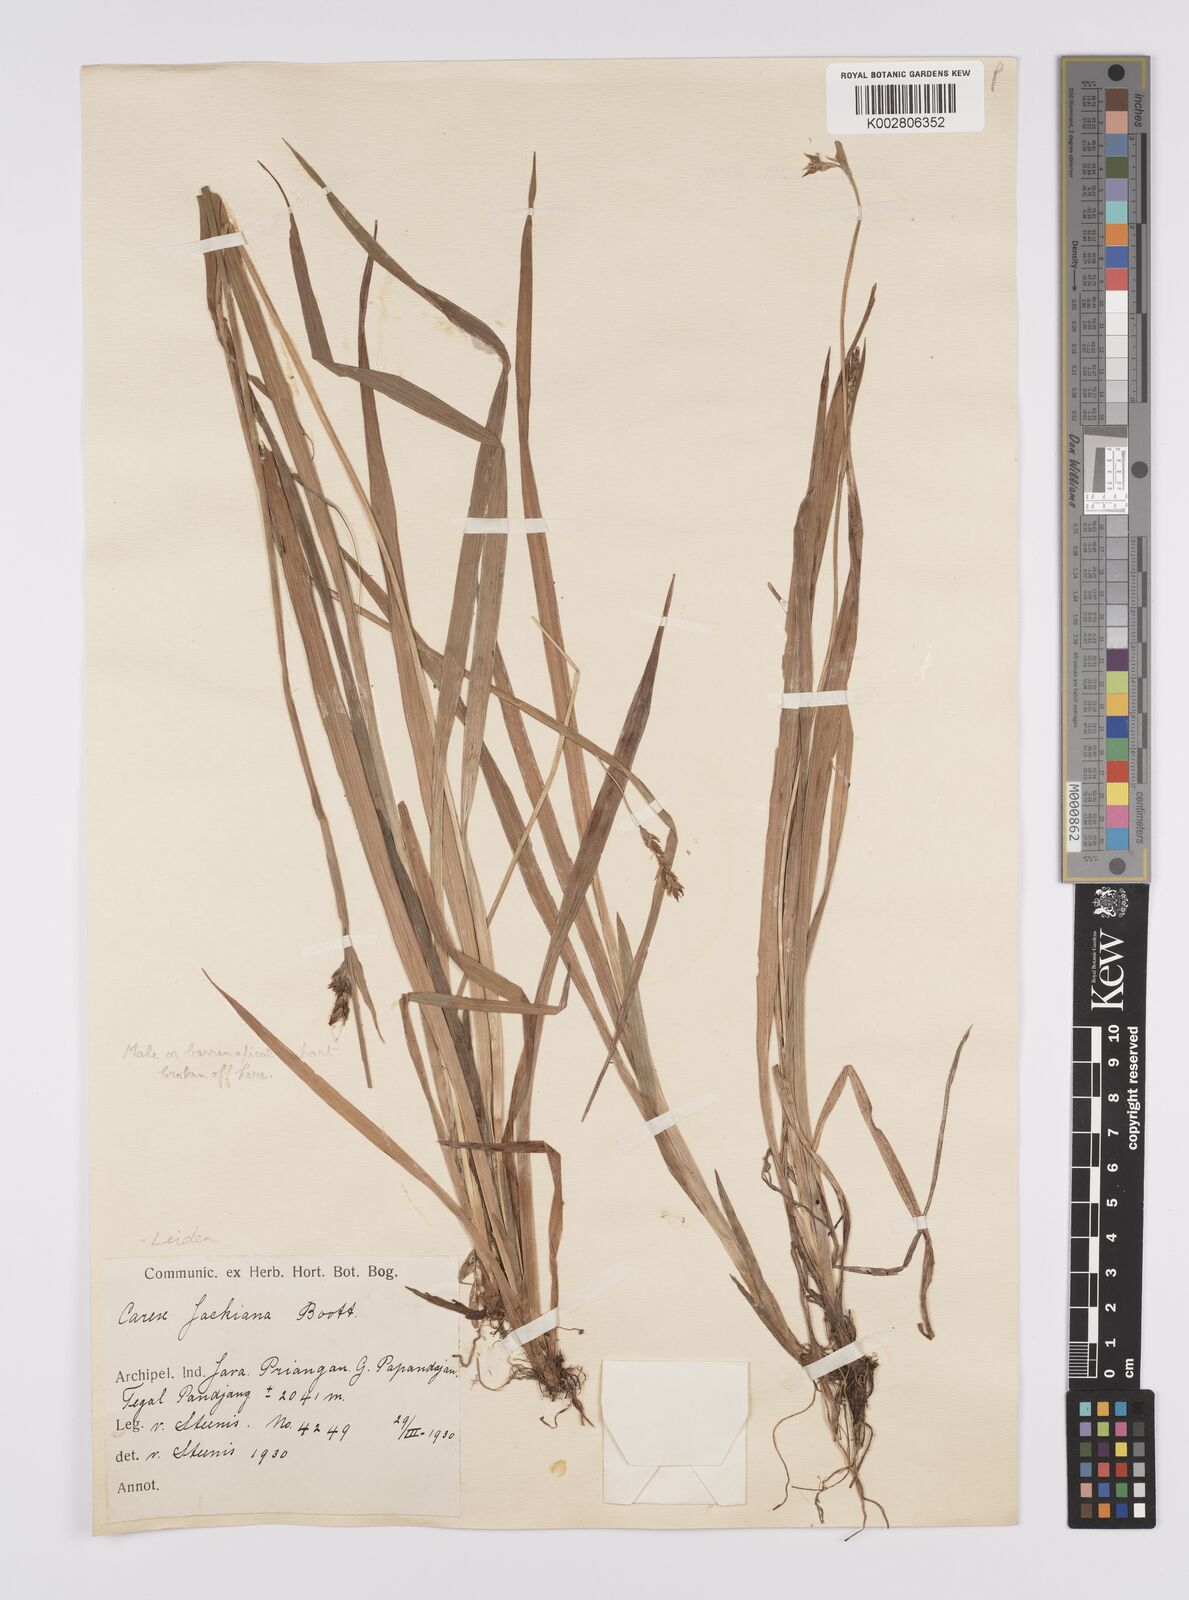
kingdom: Plantae
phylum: Tracheophyta
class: Liliopsida
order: Poales
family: Cyperaceae
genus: Carex
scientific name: Carex jackiana
